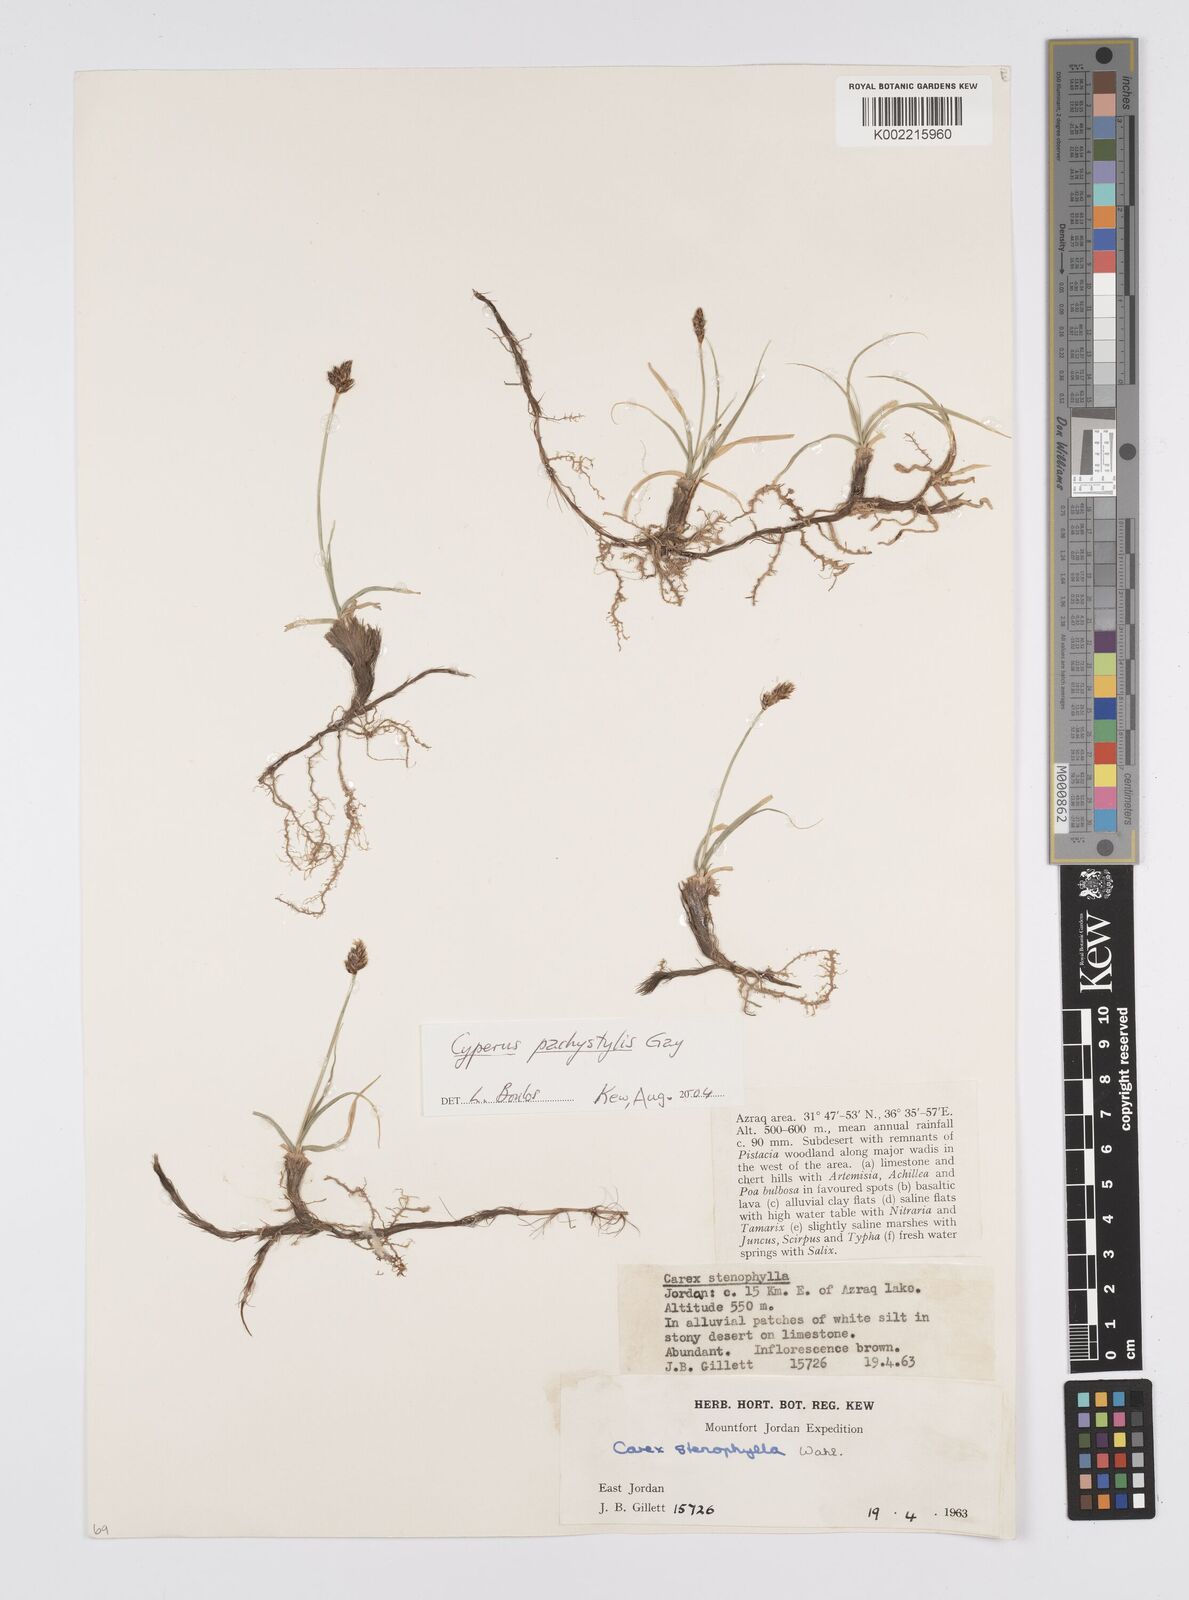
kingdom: Plantae
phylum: Tracheophyta
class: Liliopsida
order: Poales
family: Cyperaceae
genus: Carex
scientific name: Carex pachystylis
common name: Thick-stem sedge
